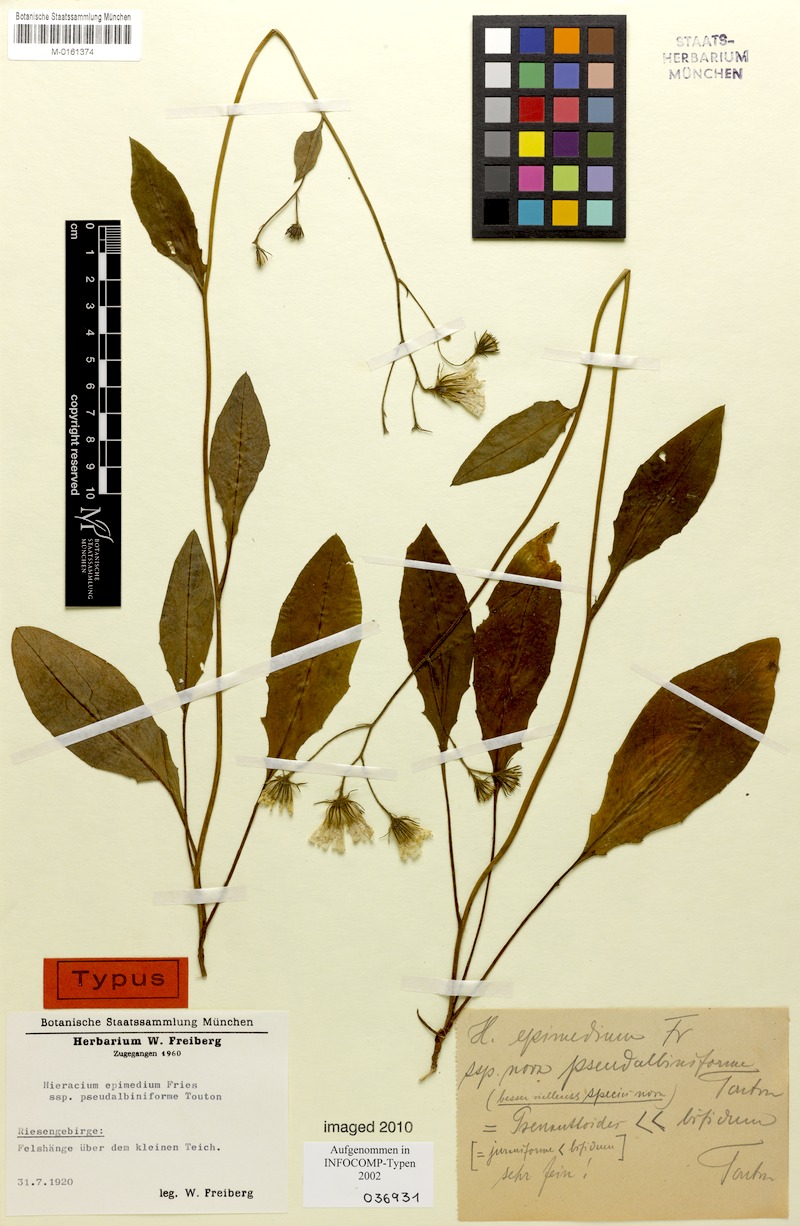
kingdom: Plantae
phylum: Tracheophyta
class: Magnoliopsida
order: Asterales
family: Asteraceae
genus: Hieracium
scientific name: Hieracium froelichianum
